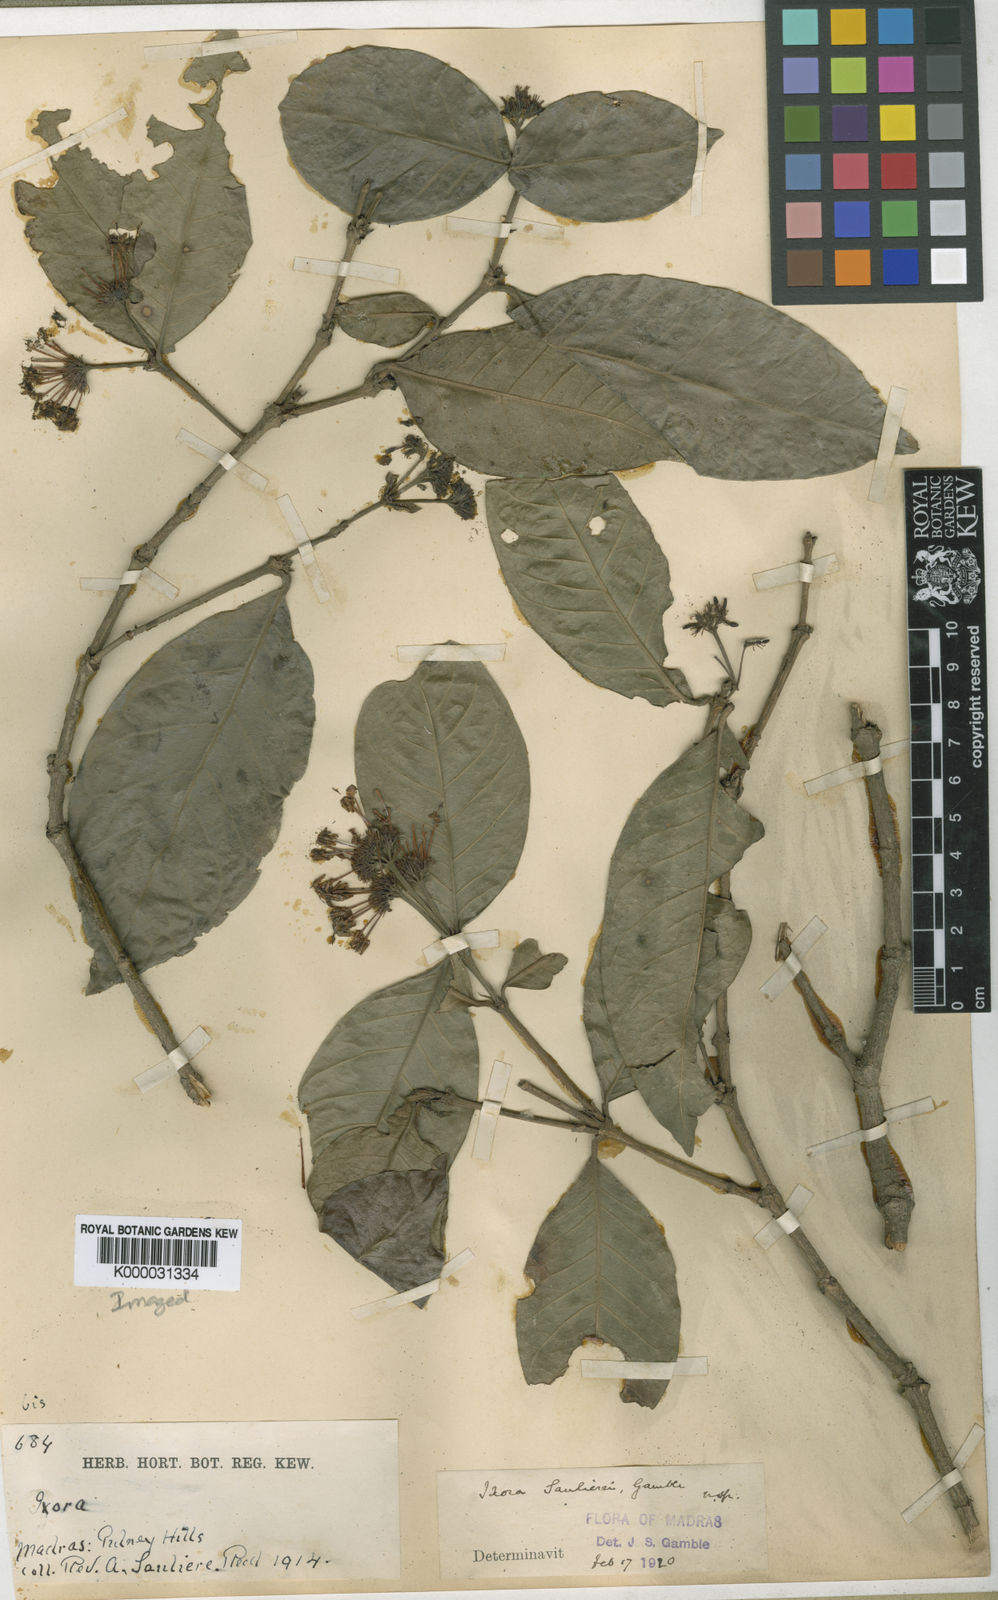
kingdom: Plantae
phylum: Tracheophyta
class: Magnoliopsida
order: Gentianales
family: Rubiaceae
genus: Ixora
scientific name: Ixora
